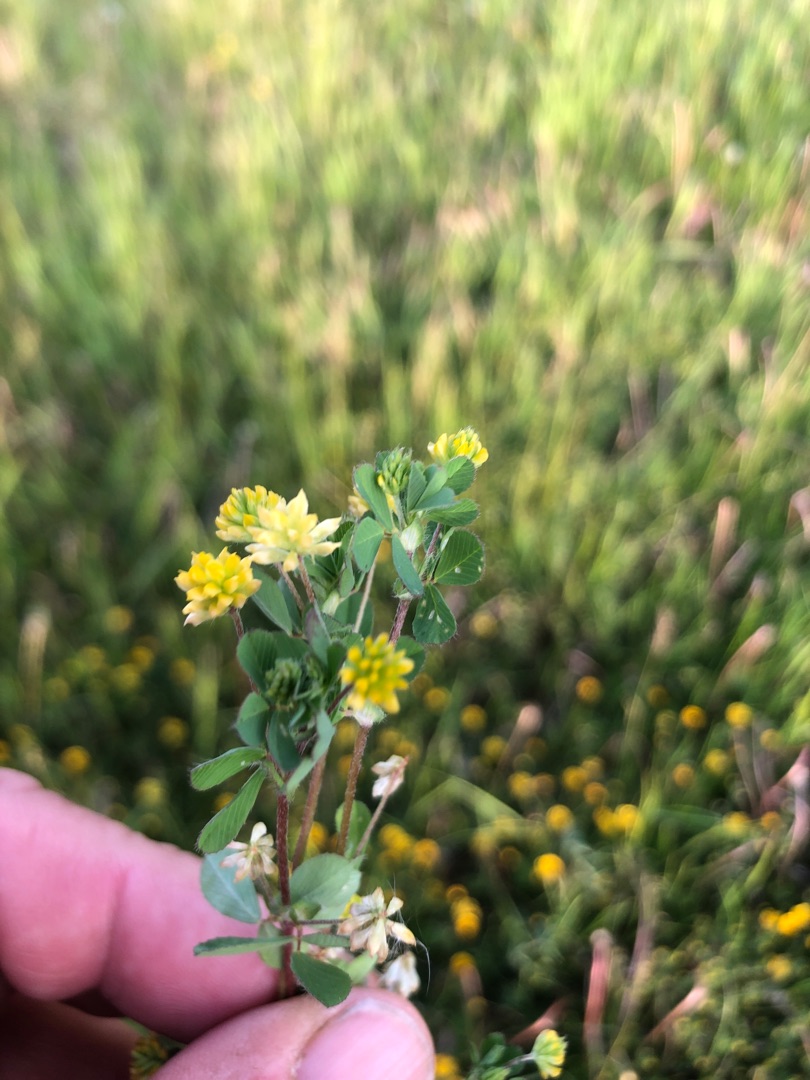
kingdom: Plantae
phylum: Tracheophyta
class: Magnoliopsida
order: Fabales
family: Fabaceae
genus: Trifolium
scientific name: Trifolium dubium
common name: Fin kløver
